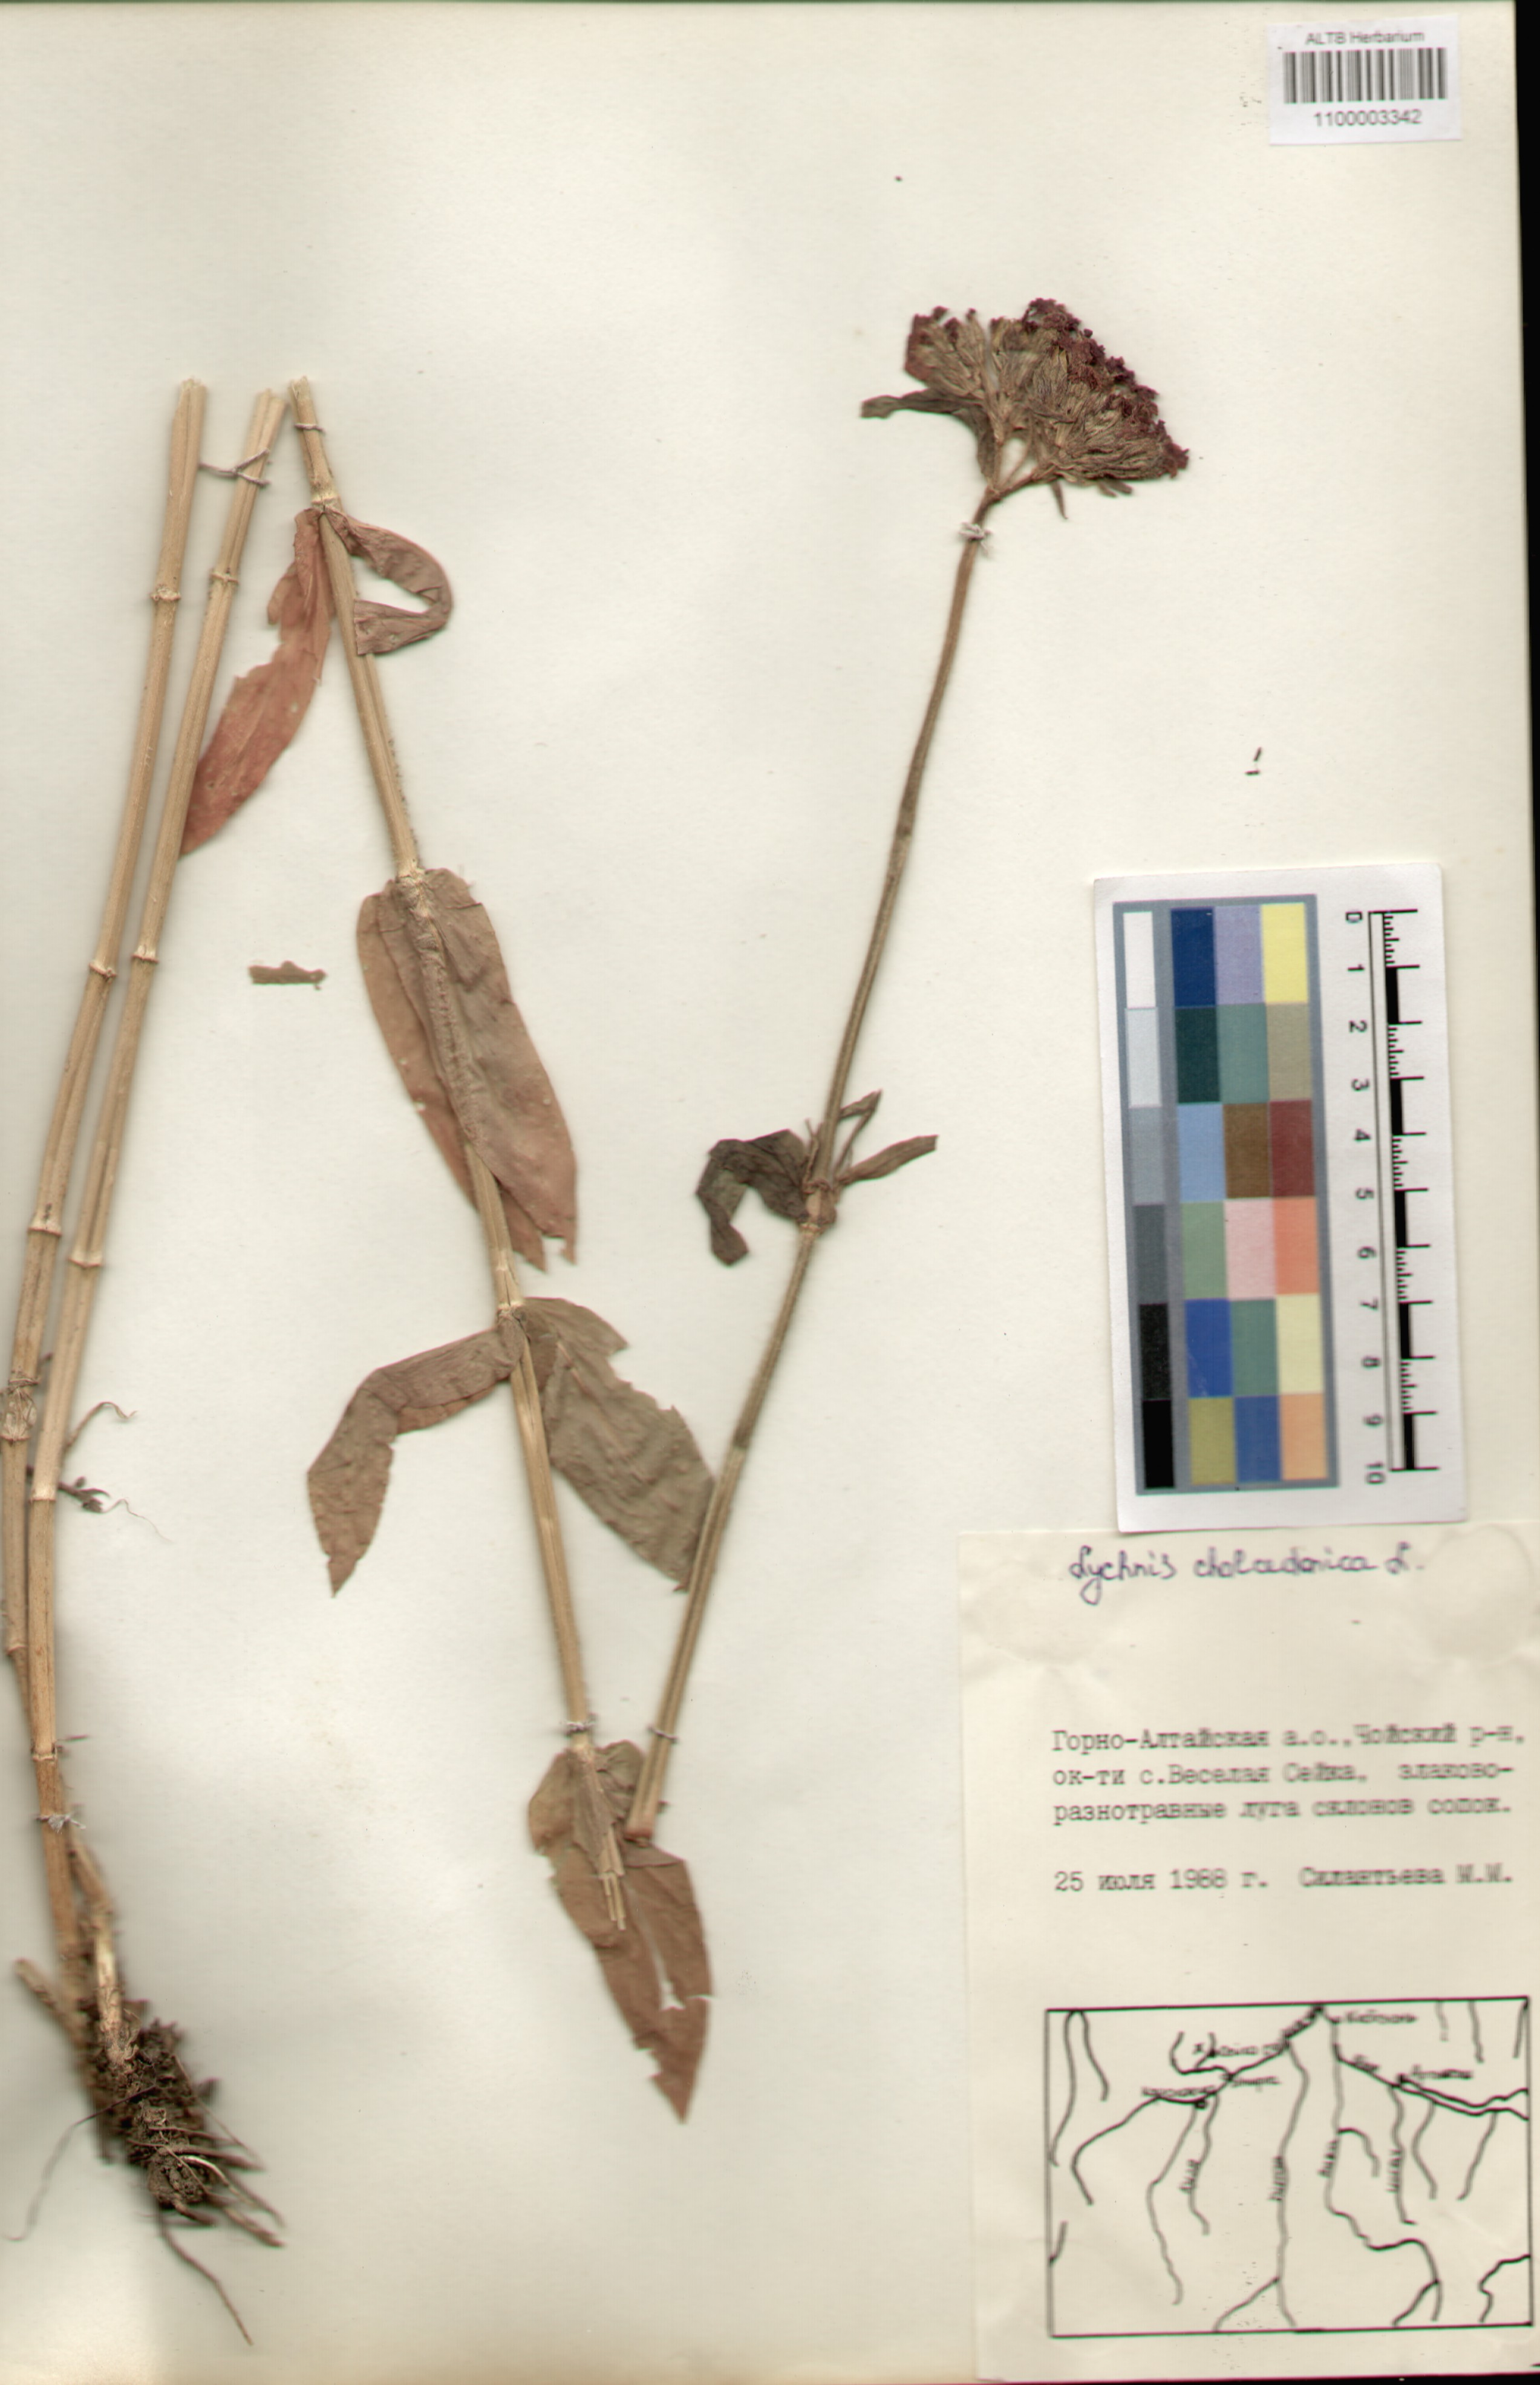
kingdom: Plantae
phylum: Tracheophyta
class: Magnoliopsida
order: Caryophyllales
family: Caryophyllaceae
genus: Silene
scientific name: Silene chalcedonica
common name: Maltese-cross
